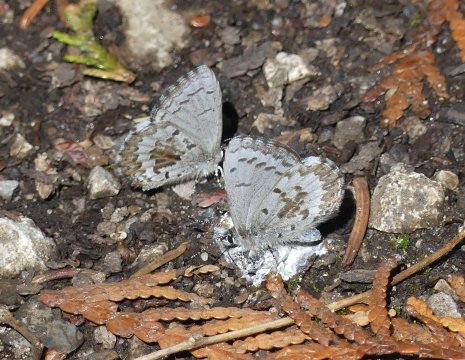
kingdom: Animalia
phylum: Arthropoda
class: Insecta
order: Lepidoptera
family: Lycaenidae
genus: Celastrina
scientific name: Celastrina lucia
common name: Northern Spring Azure
